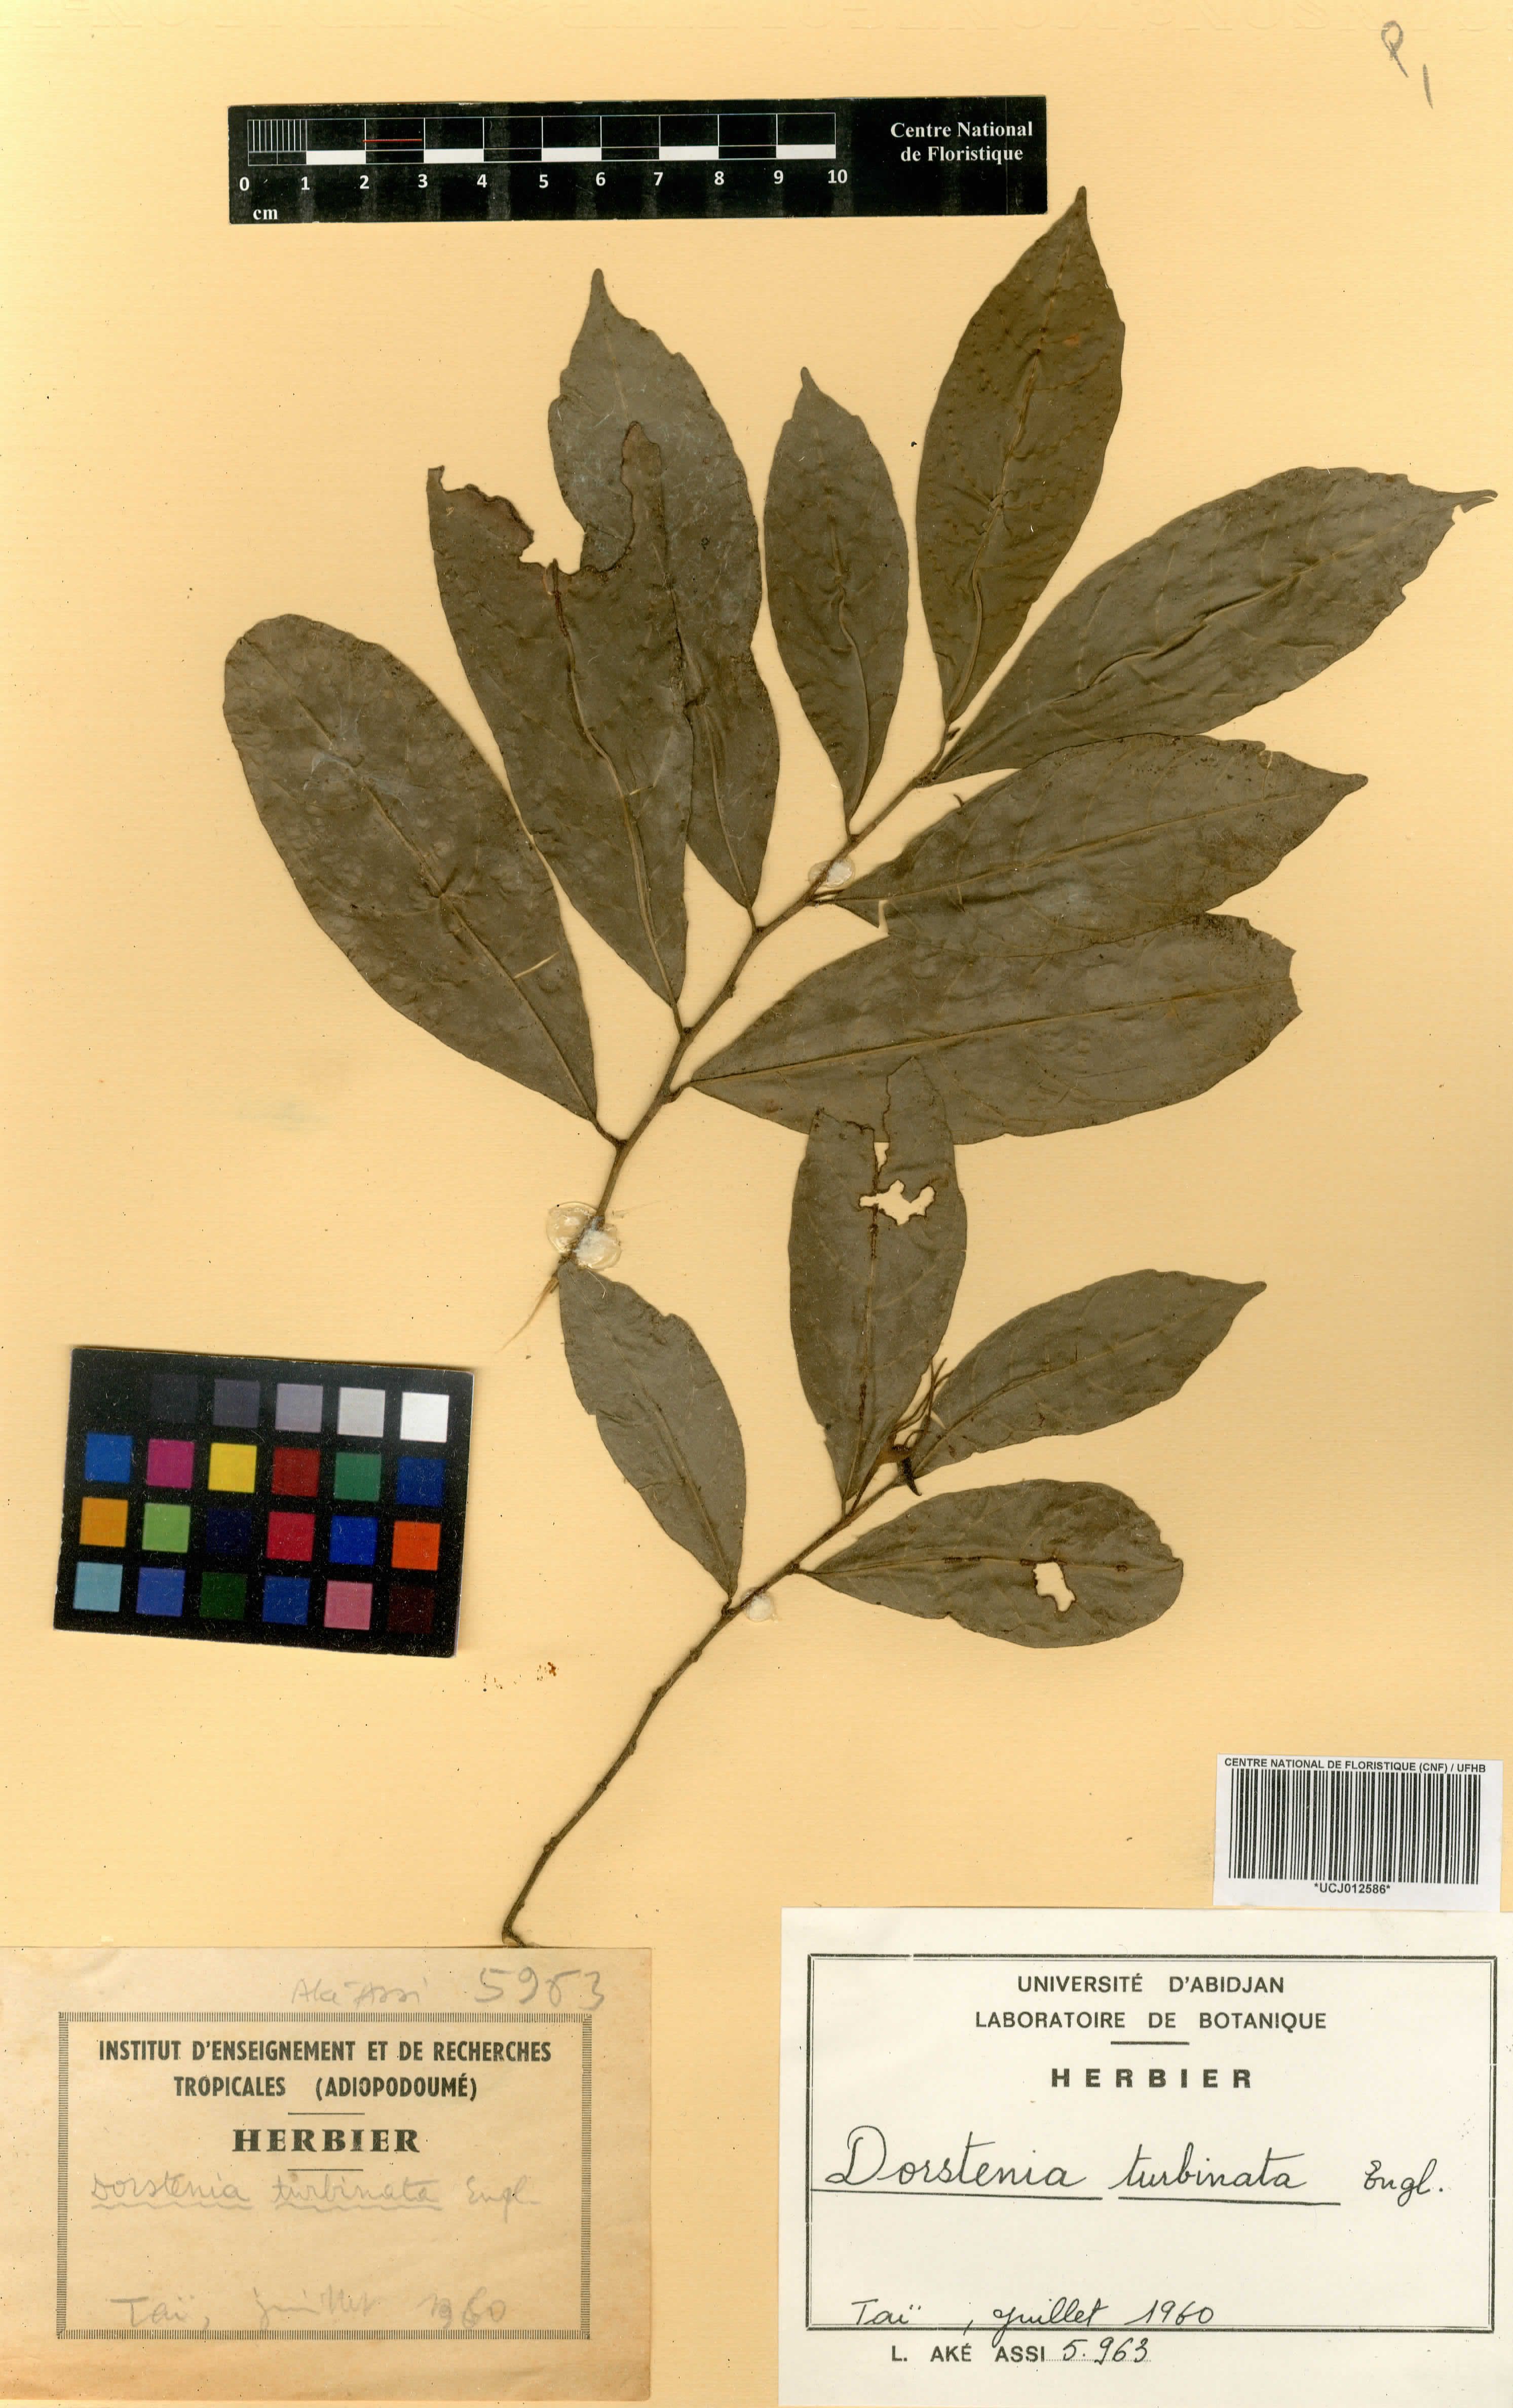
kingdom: Plantae
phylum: Tracheophyta
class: Magnoliopsida
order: Rosales
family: Moraceae
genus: Hijmania
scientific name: Hijmania turbinata
